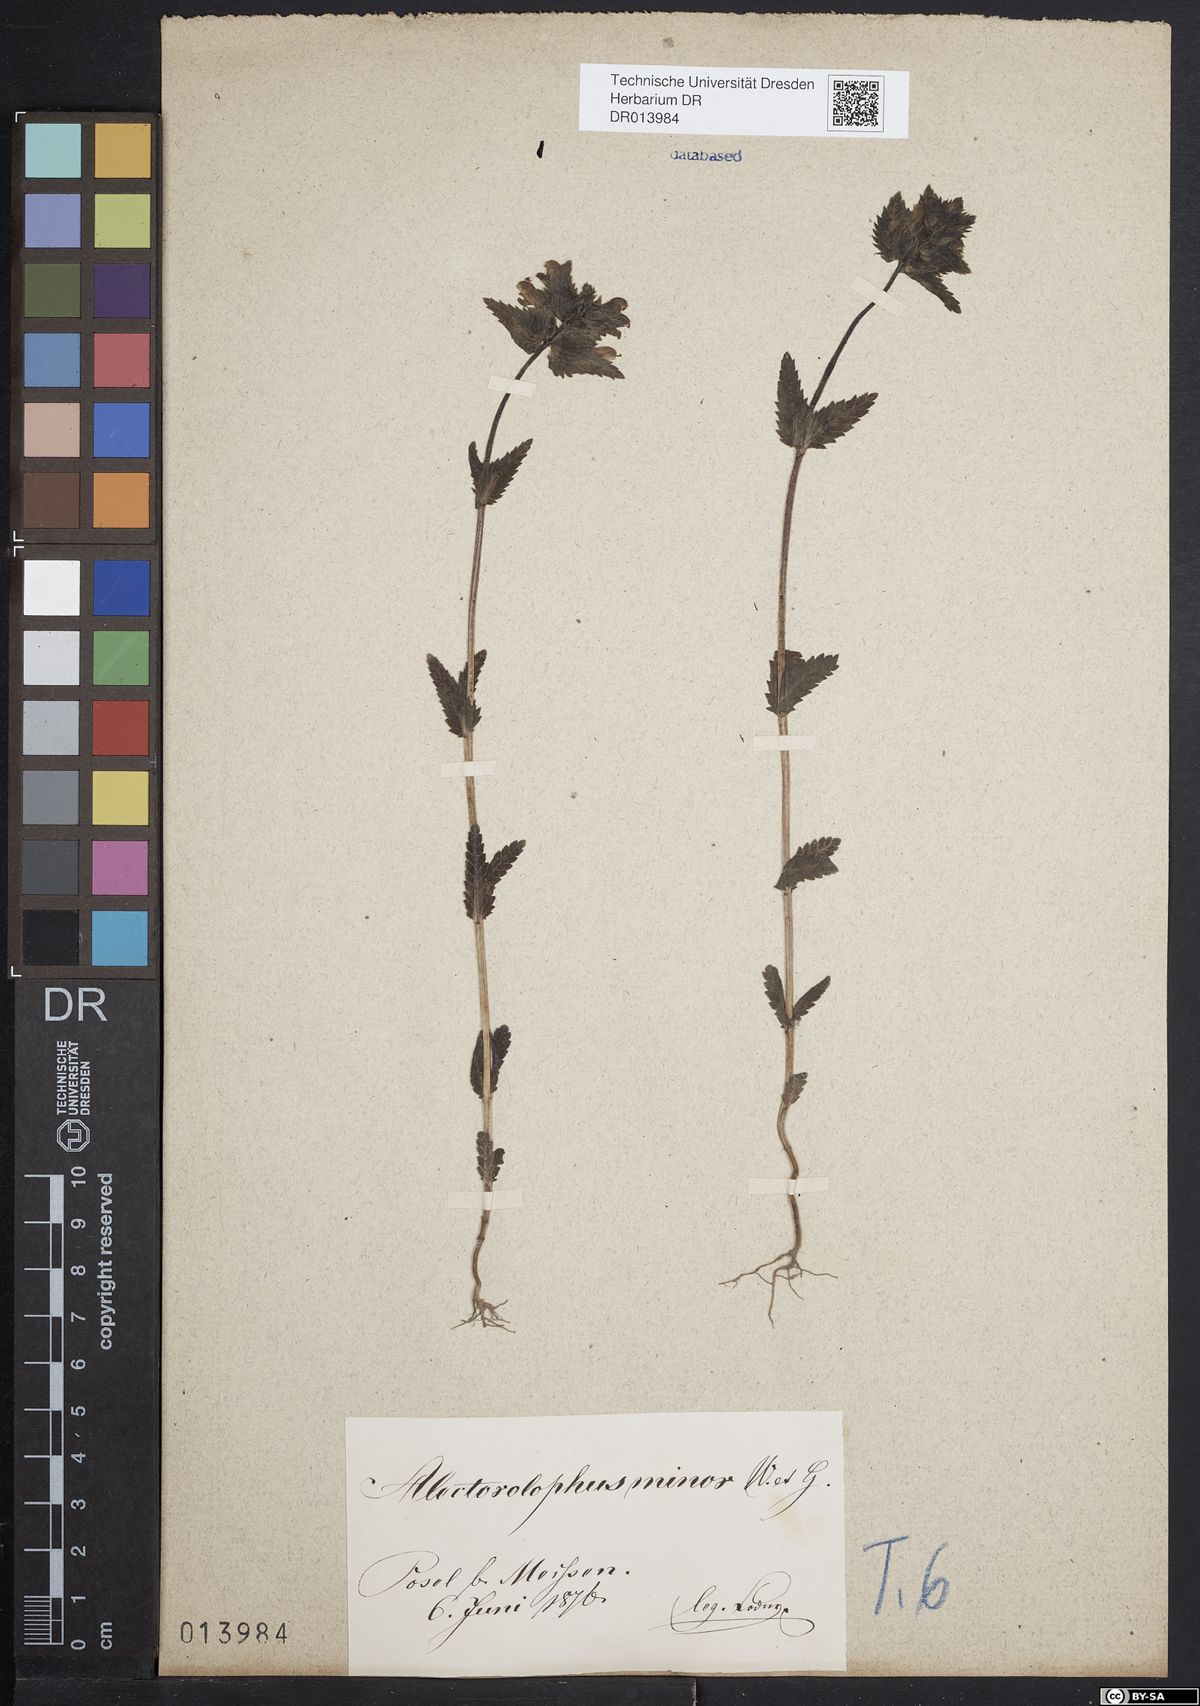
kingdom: Plantae
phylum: Tracheophyta
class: Magnoliopsida
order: Lamiales
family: Orobanchaceae
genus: Rhinanthus
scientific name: Rhinanthus minor
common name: Yellow-rattle
